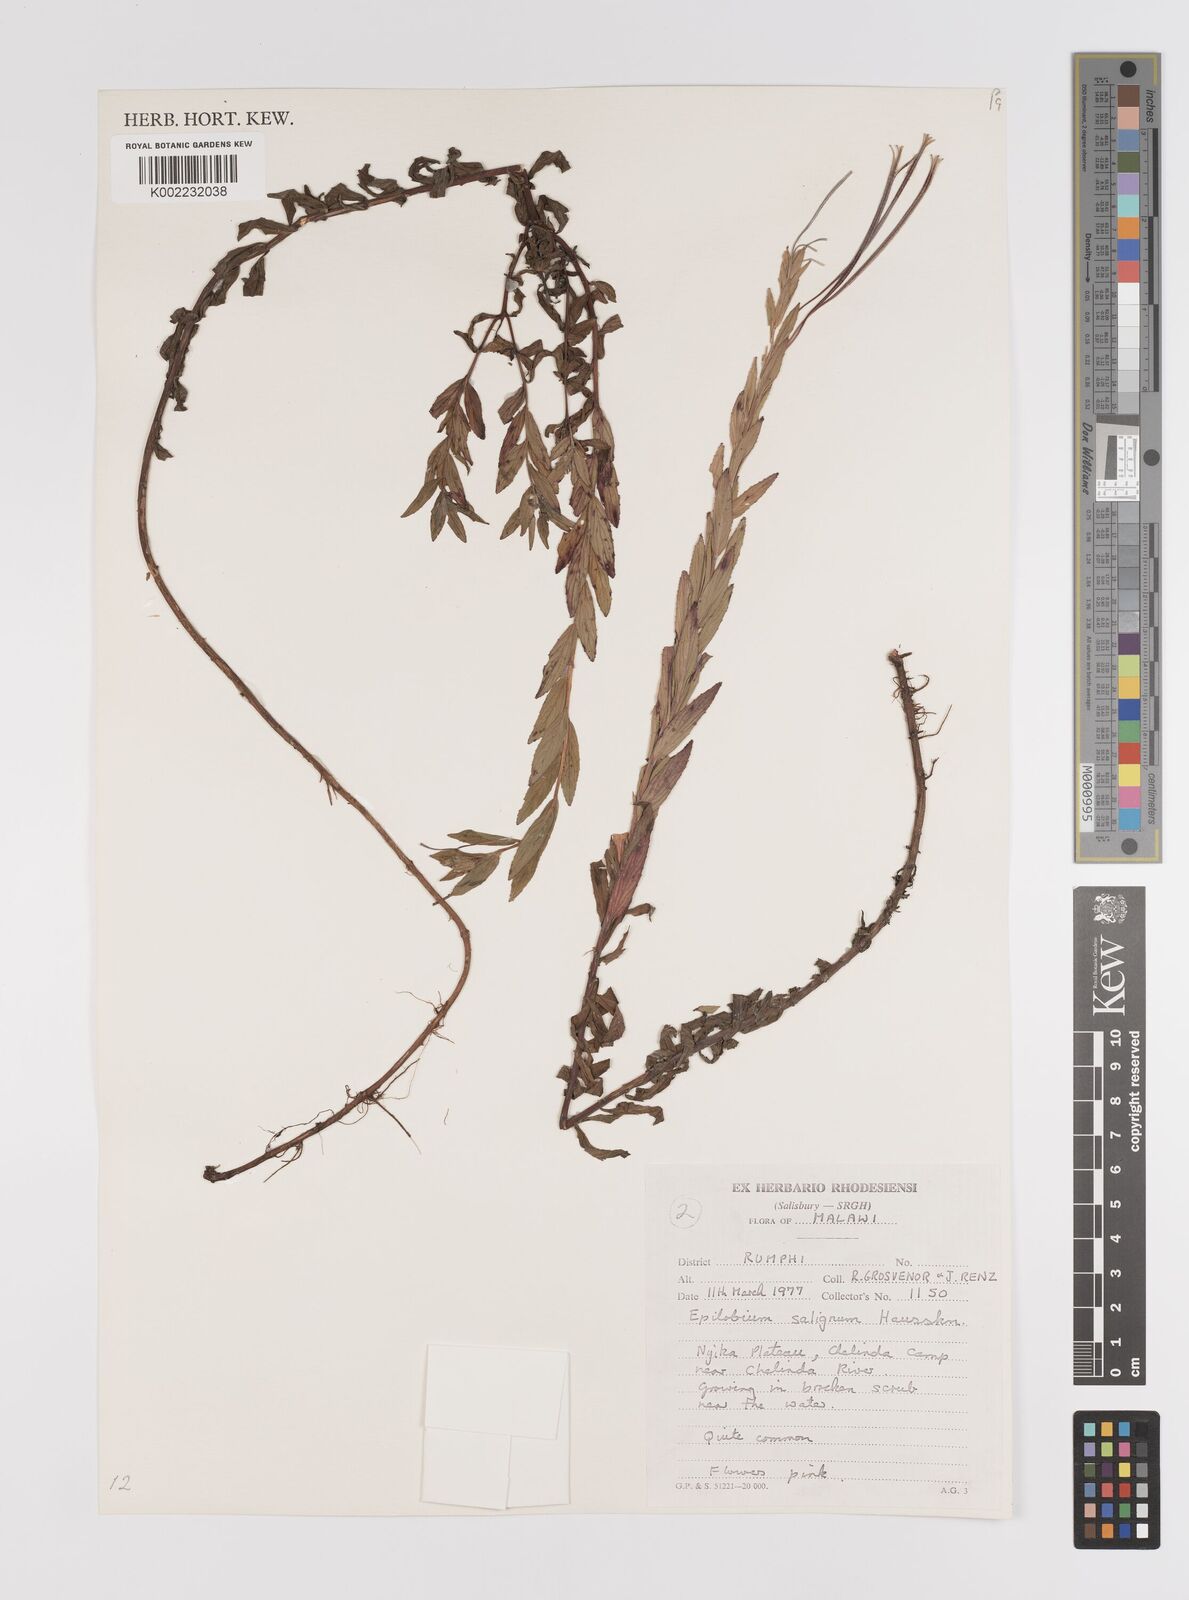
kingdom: Plantae
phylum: Tracheophyta
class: Magnoliopsida
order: Myrtales
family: Onagraceae
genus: Epilobium
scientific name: Epilobium salignum
